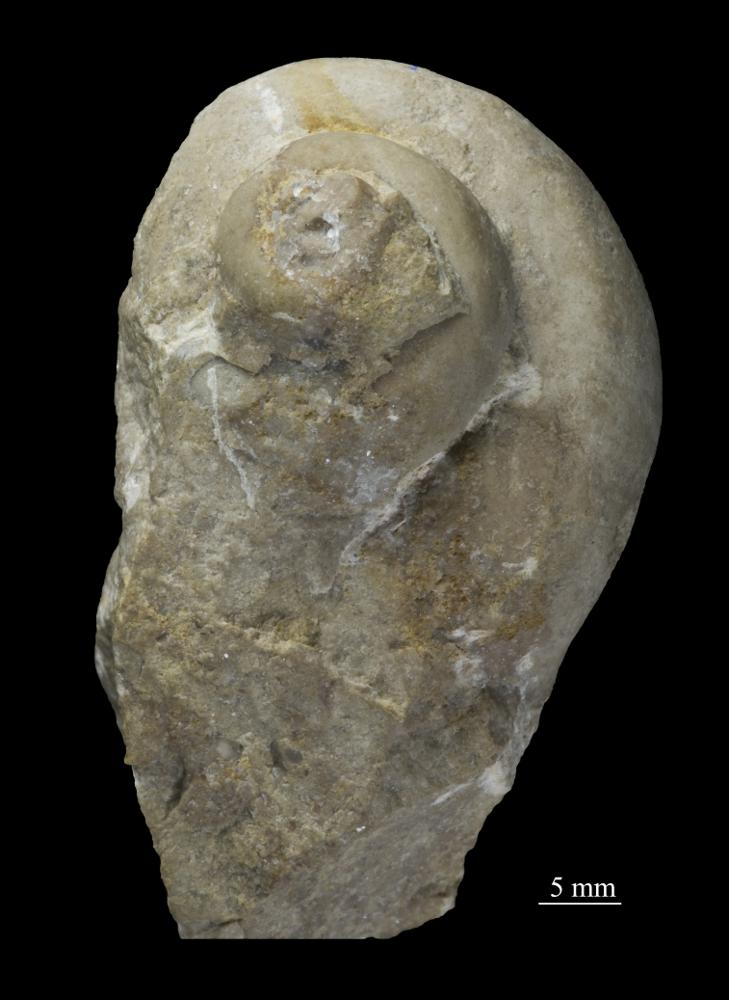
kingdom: Animalia
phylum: Mollusca
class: Gastropoda
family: Holopeidae
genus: Holopea
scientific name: Holopea Turbo balticus
